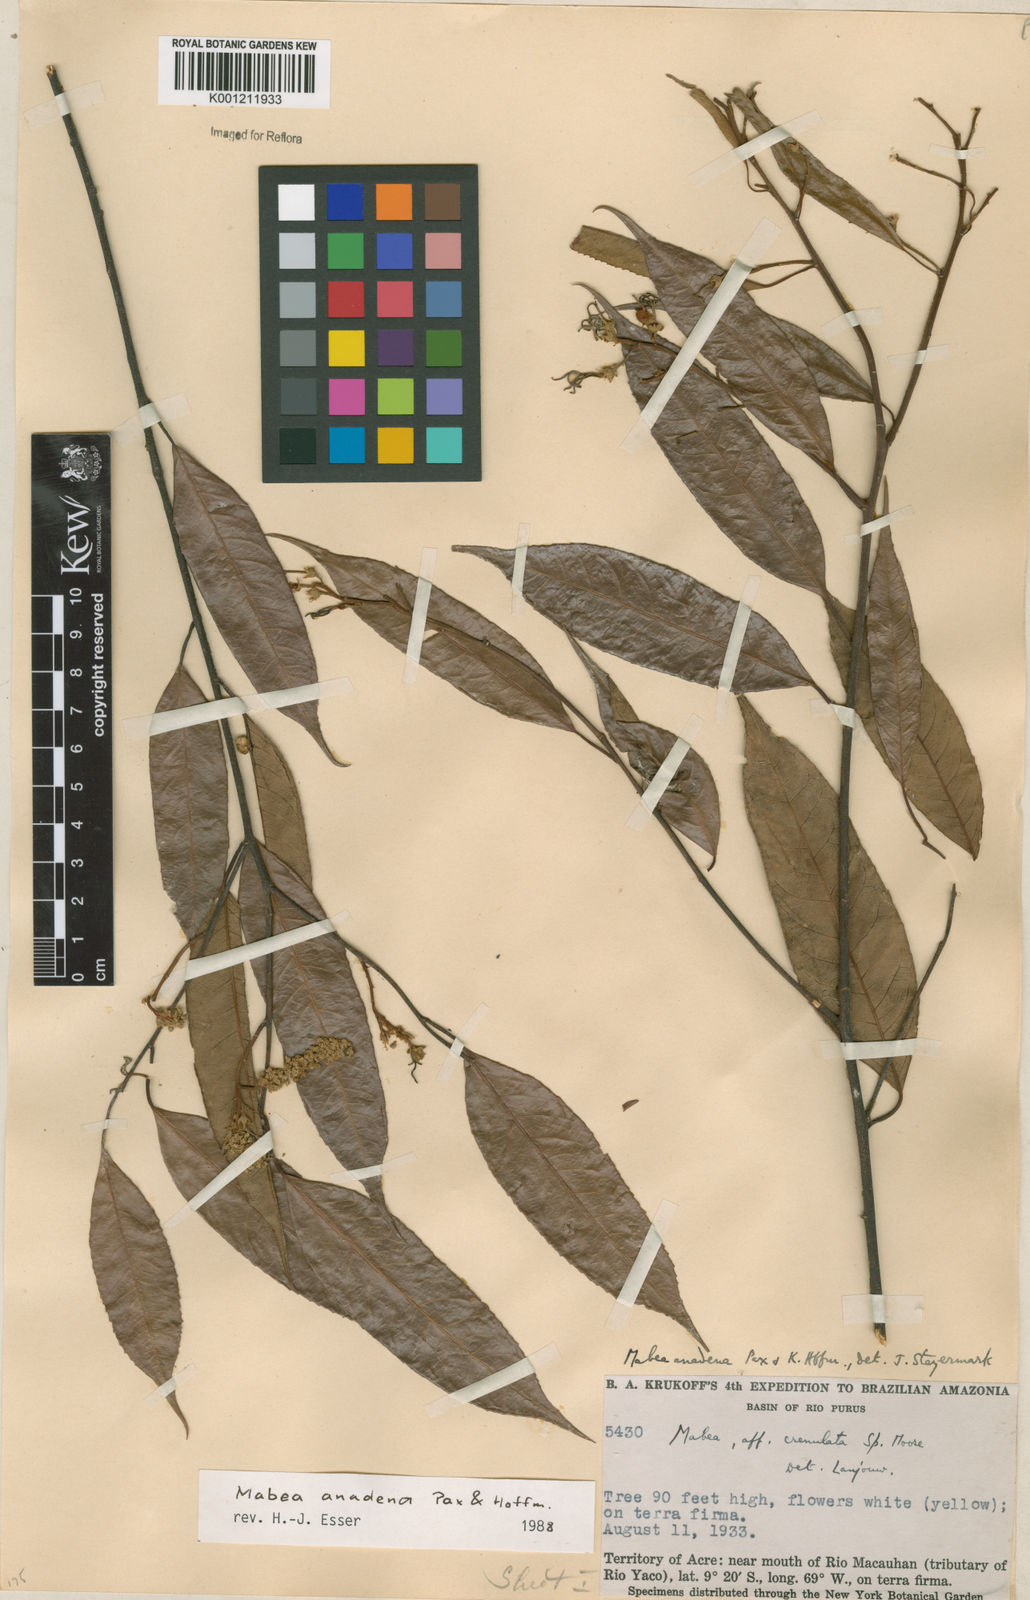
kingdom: Plantae
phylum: Tracheophyta
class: Magnoliopsida
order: Malpighiales
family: Euphorbiaceae
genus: Mabea
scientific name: Mabea anadena
